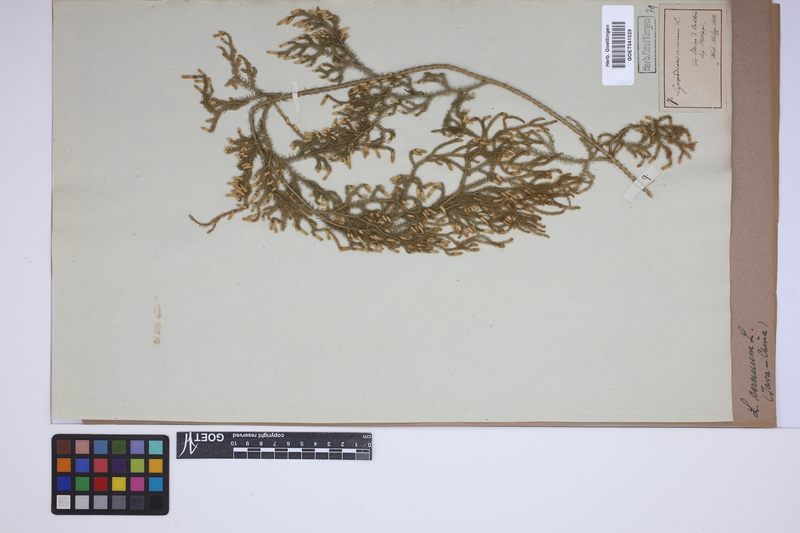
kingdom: Plantae
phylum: Tracheophyta
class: Lycopodiopsida
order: Lycopodiales
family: Lycopodiaceae
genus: Palhinhaea
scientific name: Palhinhaea cernua
